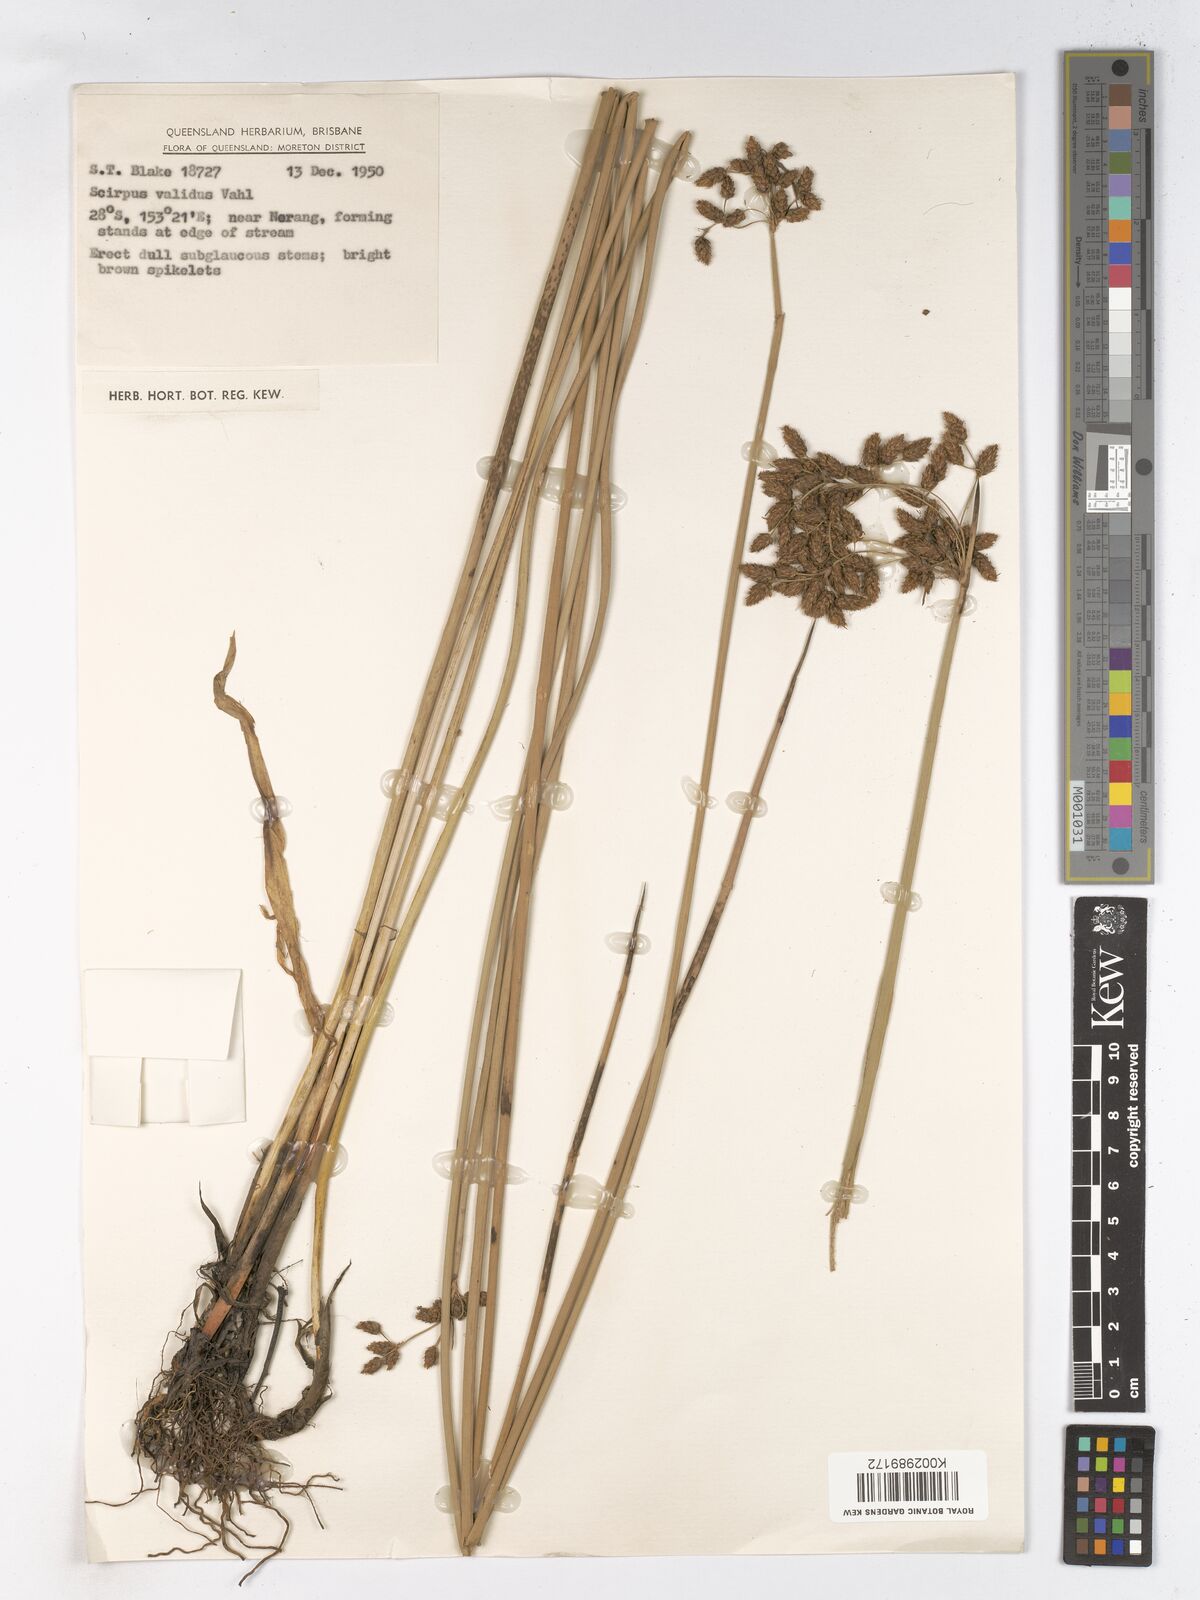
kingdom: Plantae
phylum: Tracheophyta
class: Liliopsida
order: Poales
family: Cyperaceae
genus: Schoenoplectus
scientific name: Schoenoplectus lacustris
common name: Common club-rush
